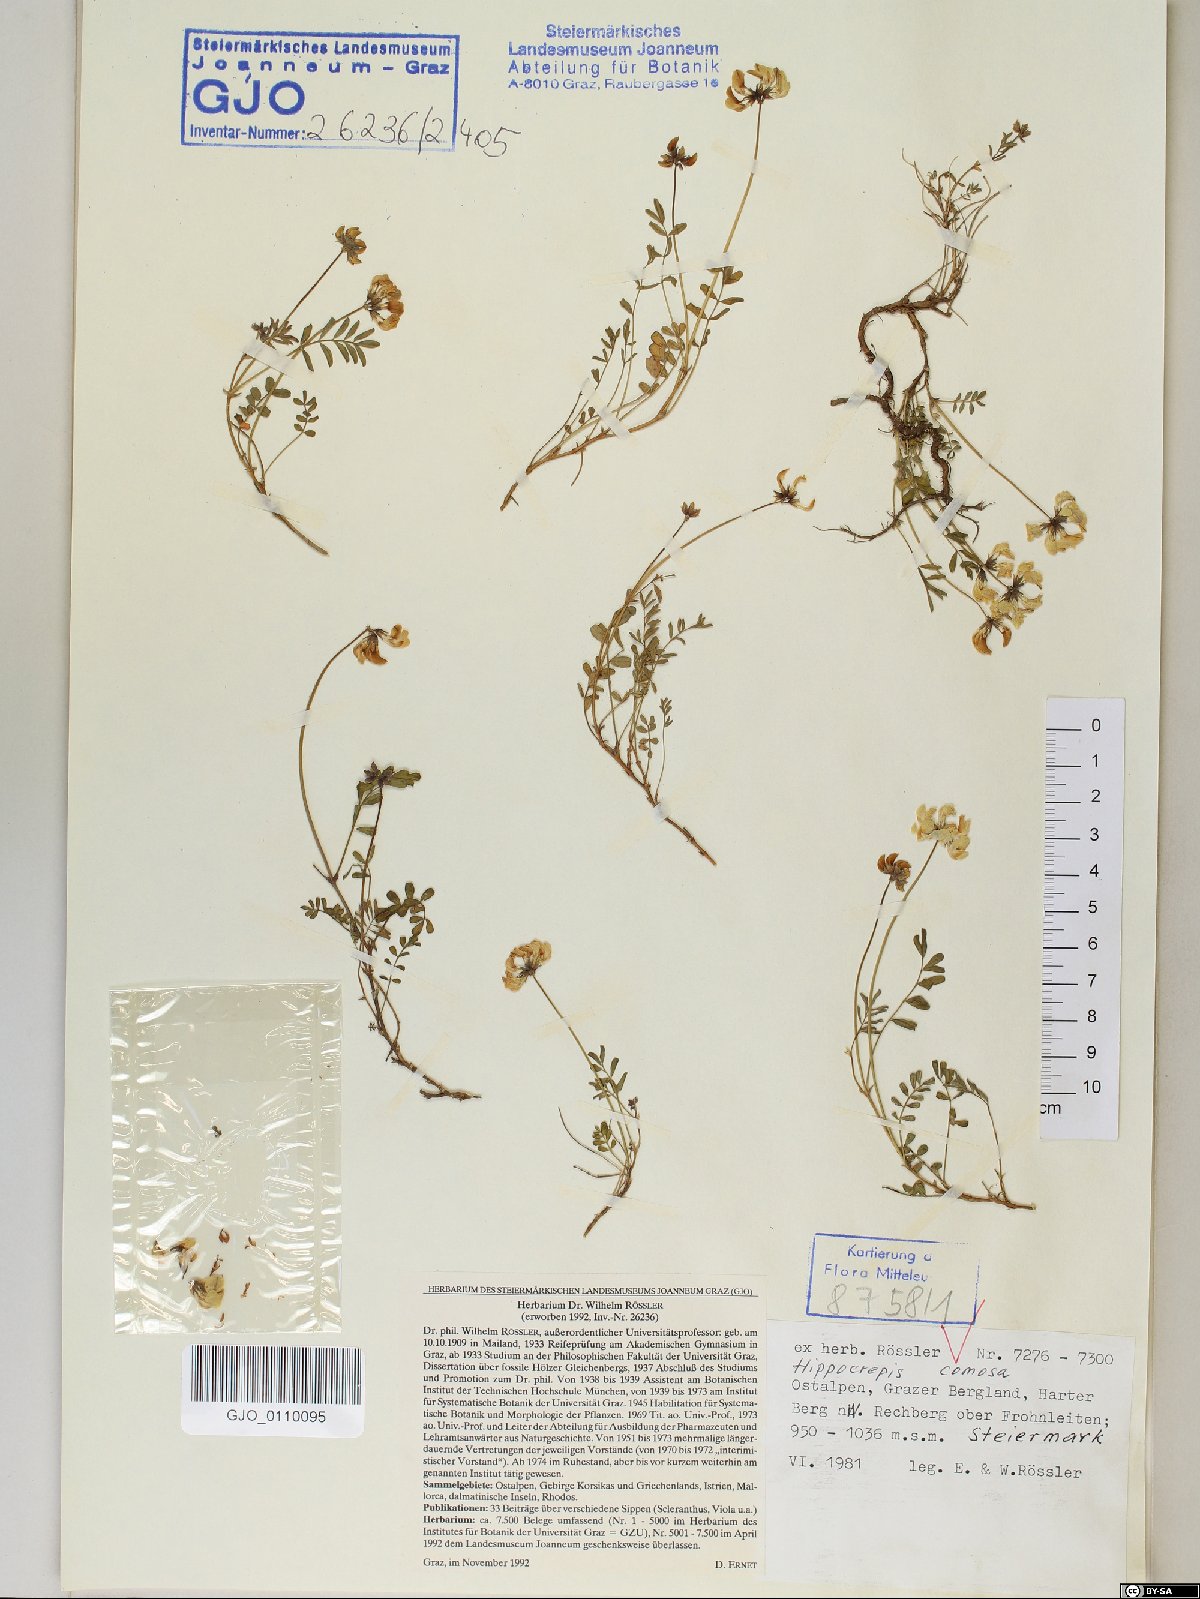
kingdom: Plantae
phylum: Tracheophyta
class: Magnoliopsida
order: Fabales
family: Fabaceae
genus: Hippocrepis
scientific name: Hippocrepis comosa
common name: Horseshoe vetch
